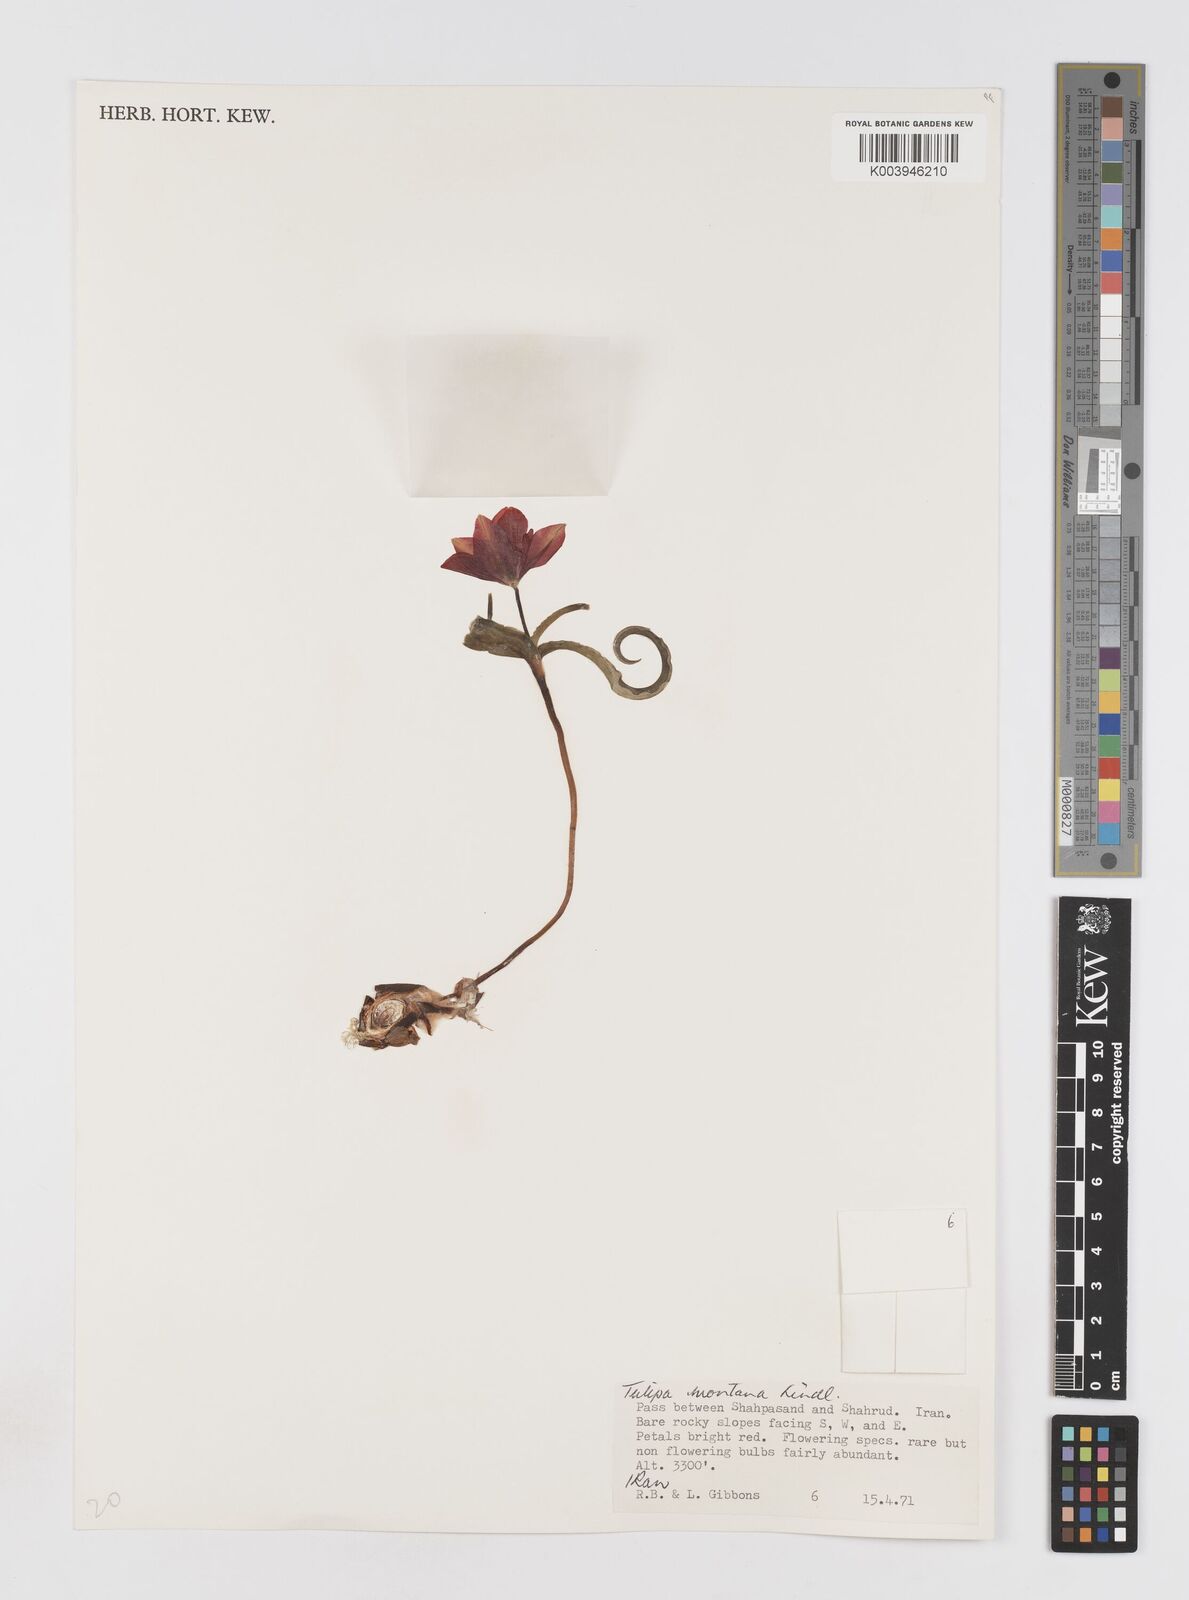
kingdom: Plantae
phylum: Tracheophyta
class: Liliopsida
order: Liliales
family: Liliaceae
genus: Tulipa
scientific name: Tulipa montana
